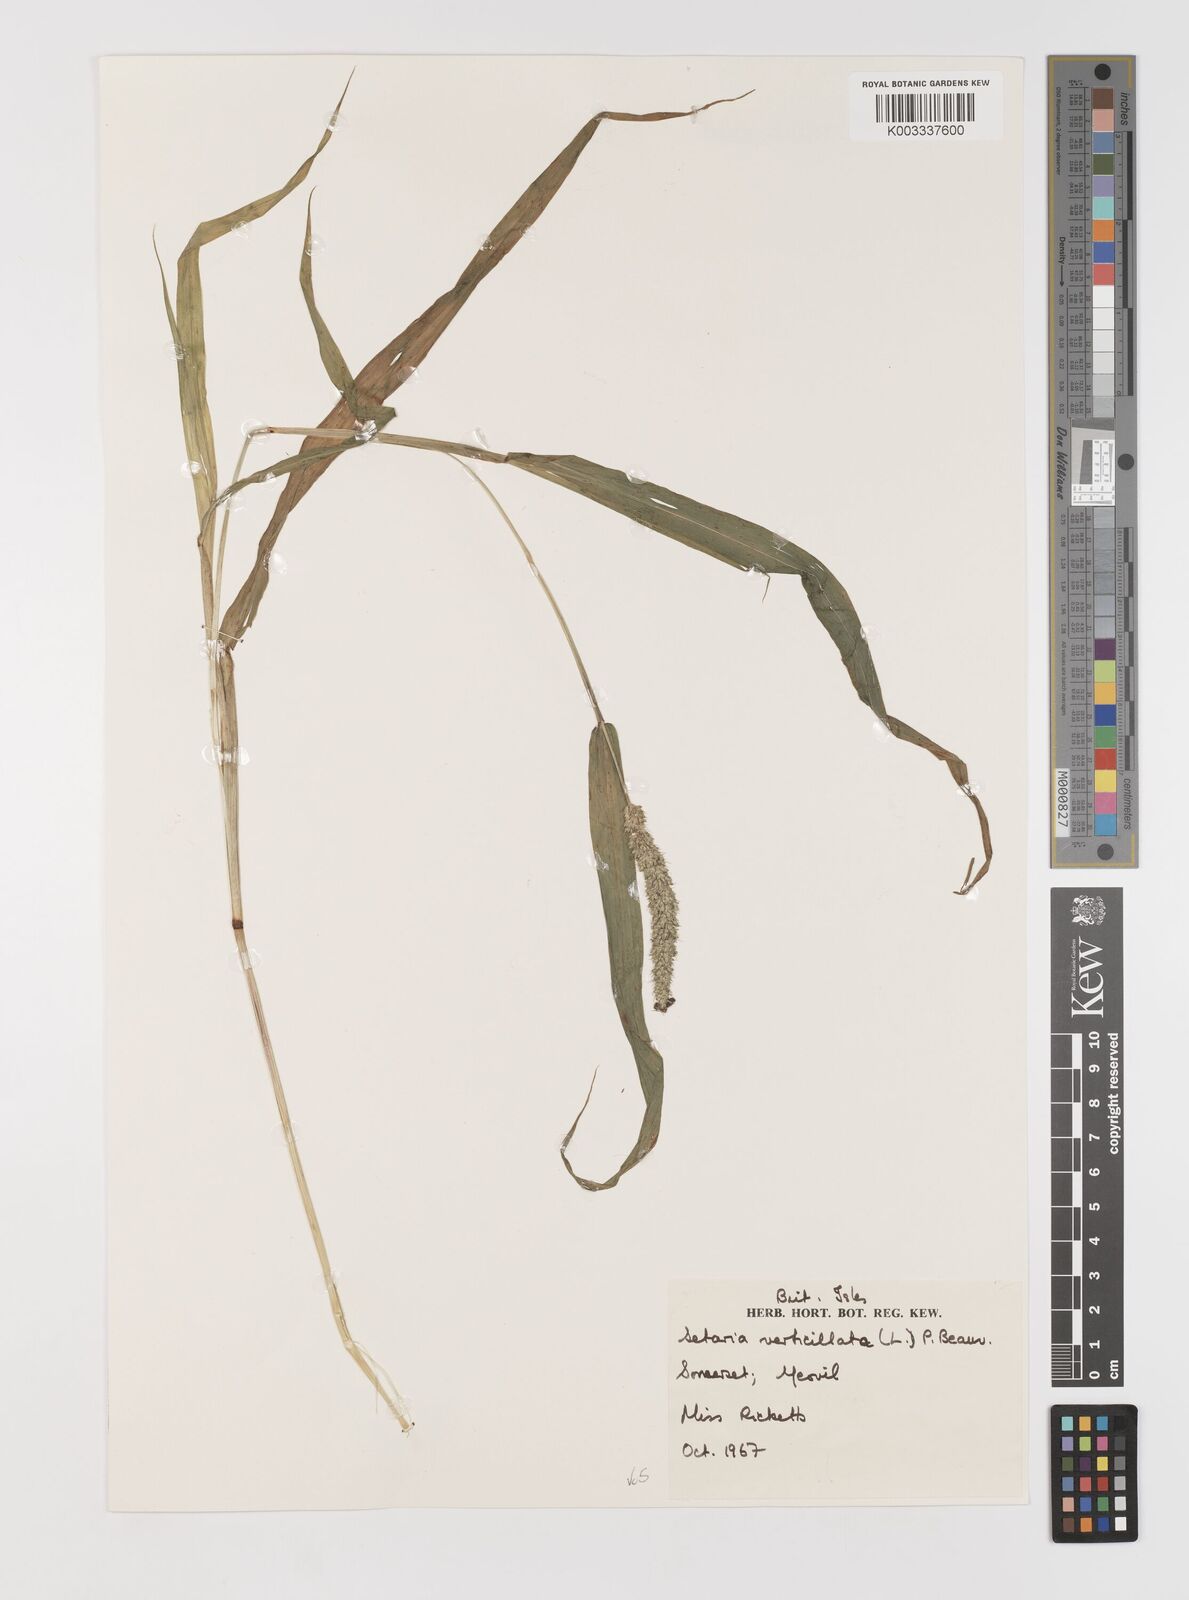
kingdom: Plantae
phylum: Tracheophyta
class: Liliopsida
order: Poales
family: Poaceae
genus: Setaria
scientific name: Setaria verticillata
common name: Hooked bristlegrass
